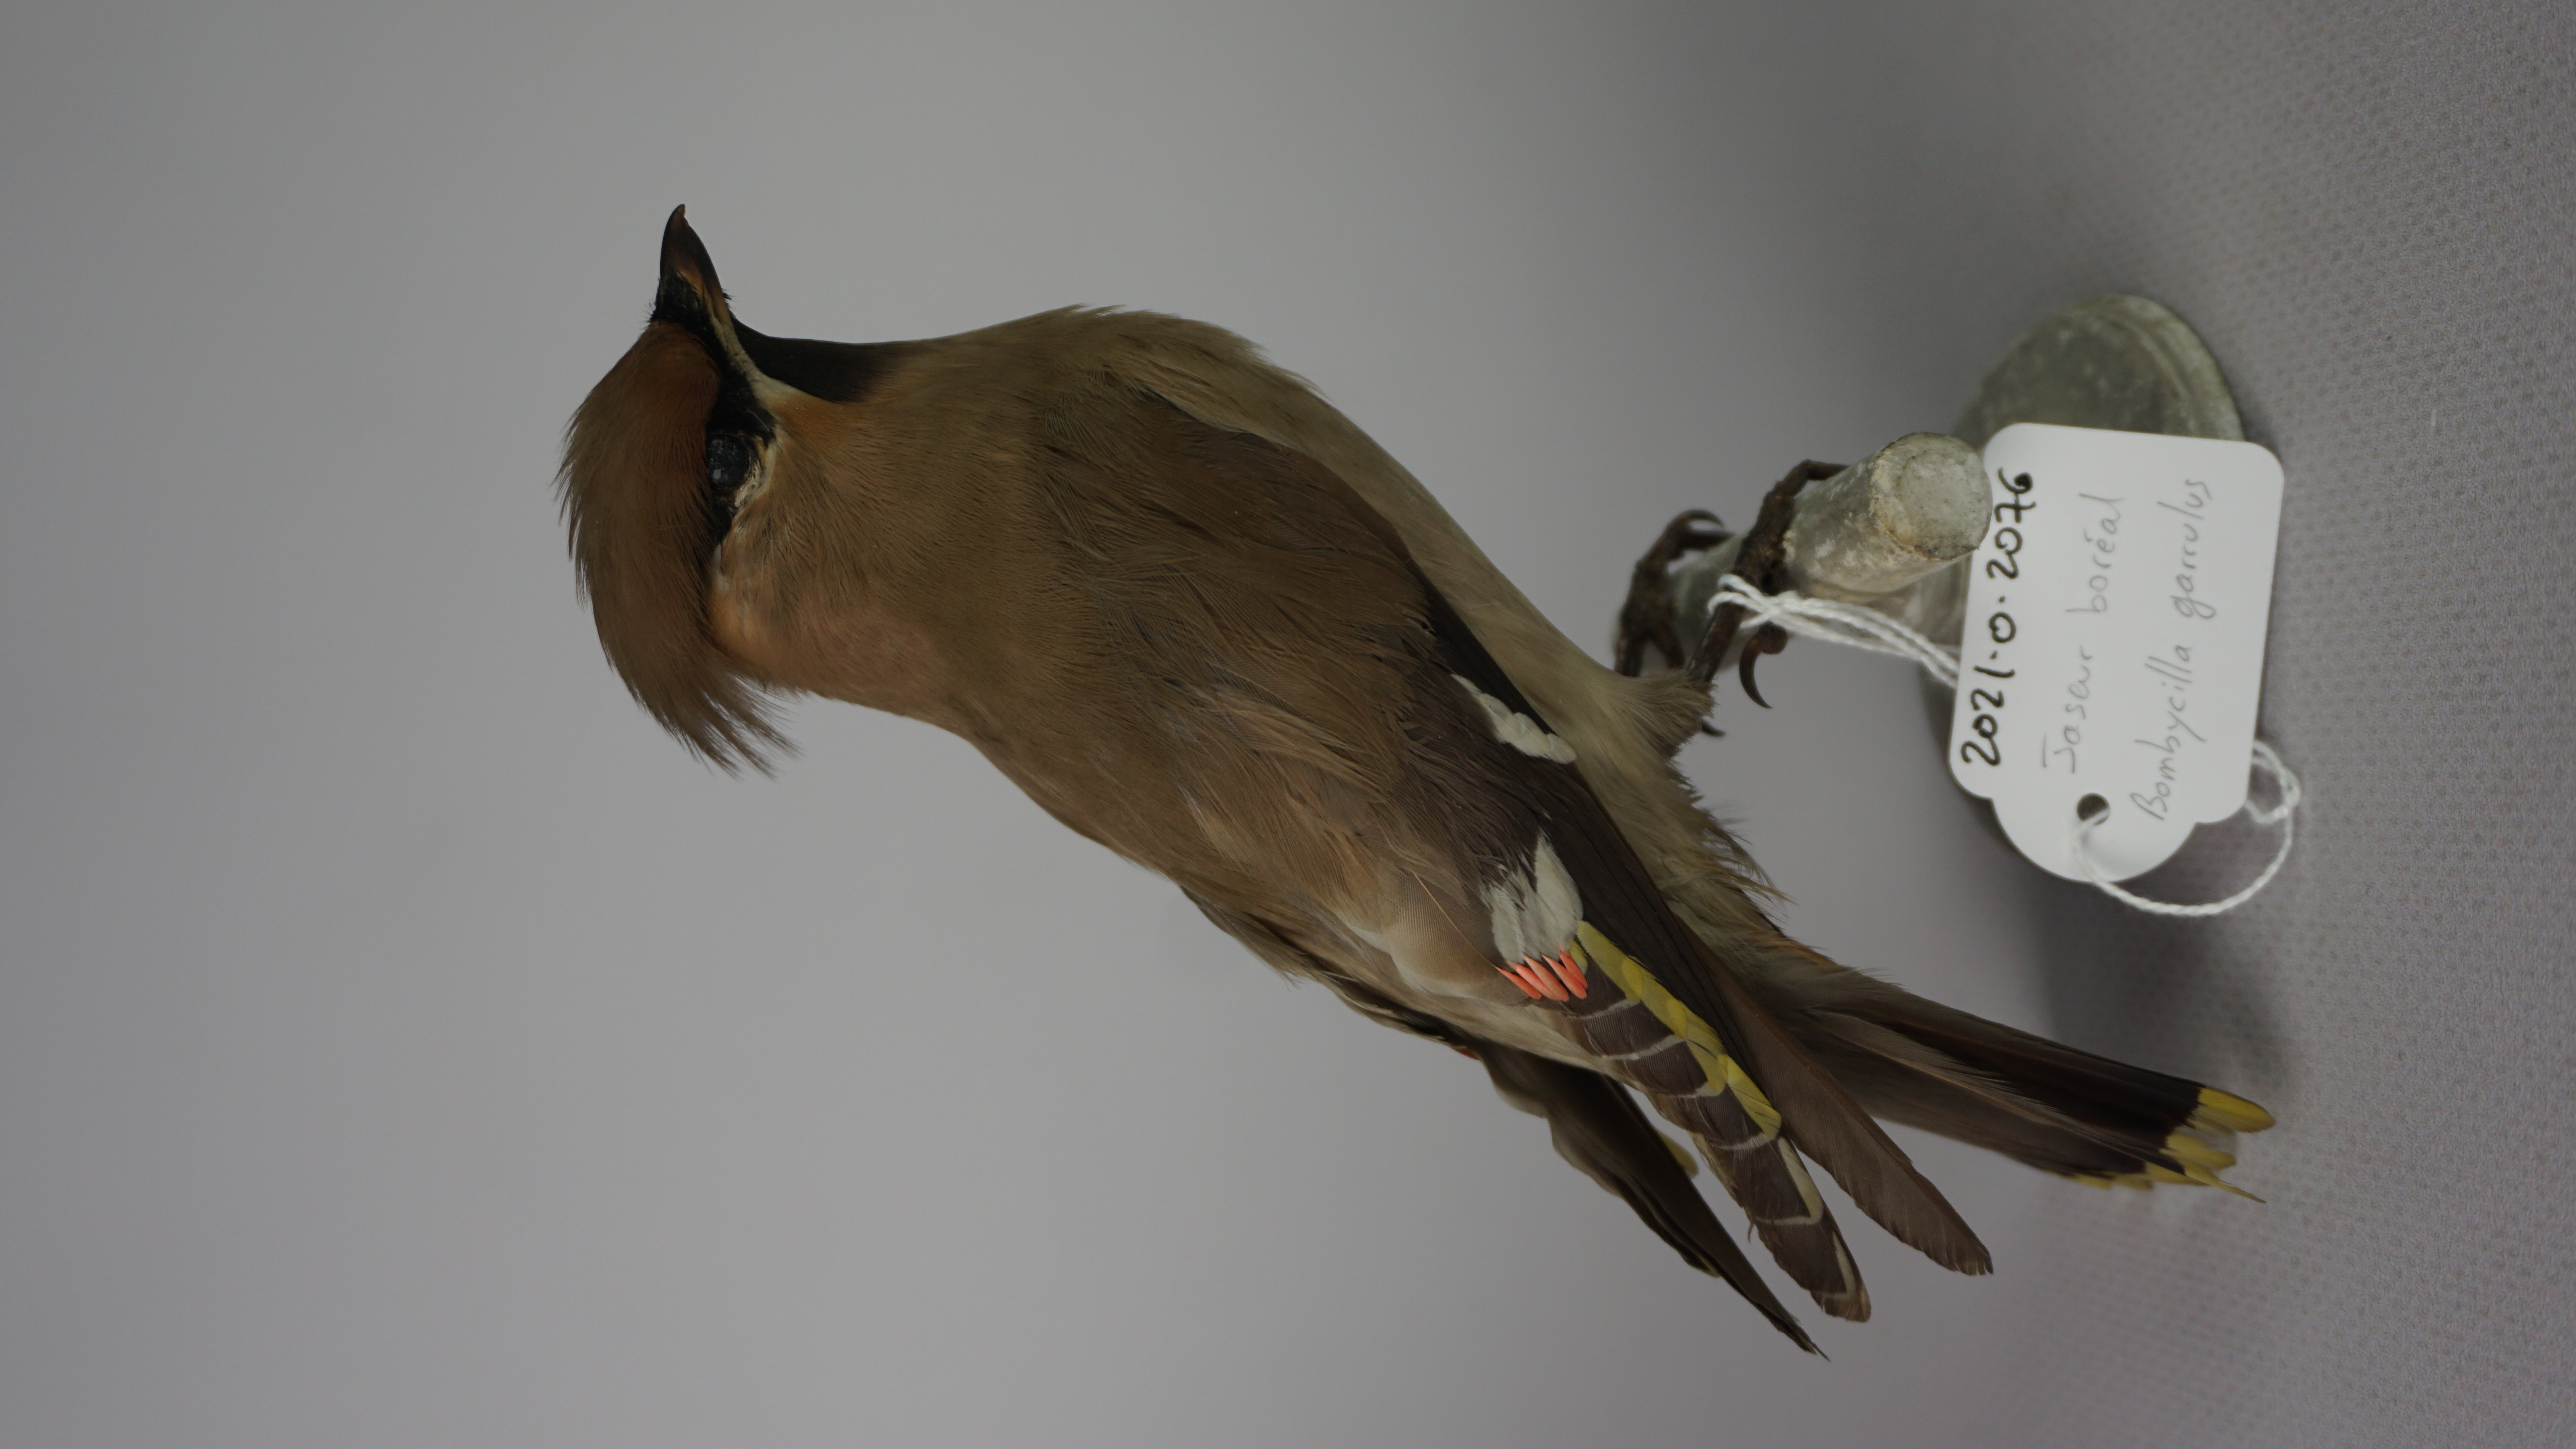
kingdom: Animalia
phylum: Chordata
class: Aves
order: Passeriformes
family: Bombycillidae
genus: Bombycilla
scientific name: Bombycilla garrulus
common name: Bohemian waxwing
